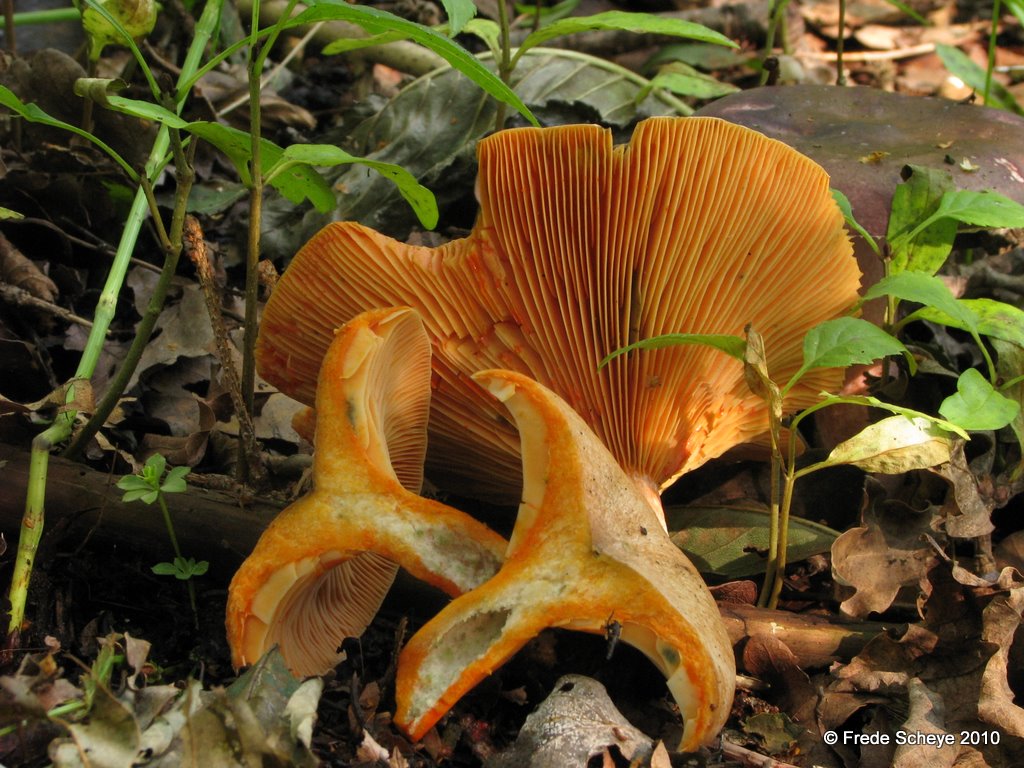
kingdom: Fungi
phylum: Basidiomycota
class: Agaricomycetes
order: Russulales
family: Russulaceae
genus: Lactarius
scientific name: Lactarius deterrimus
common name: gran-mælkehat
